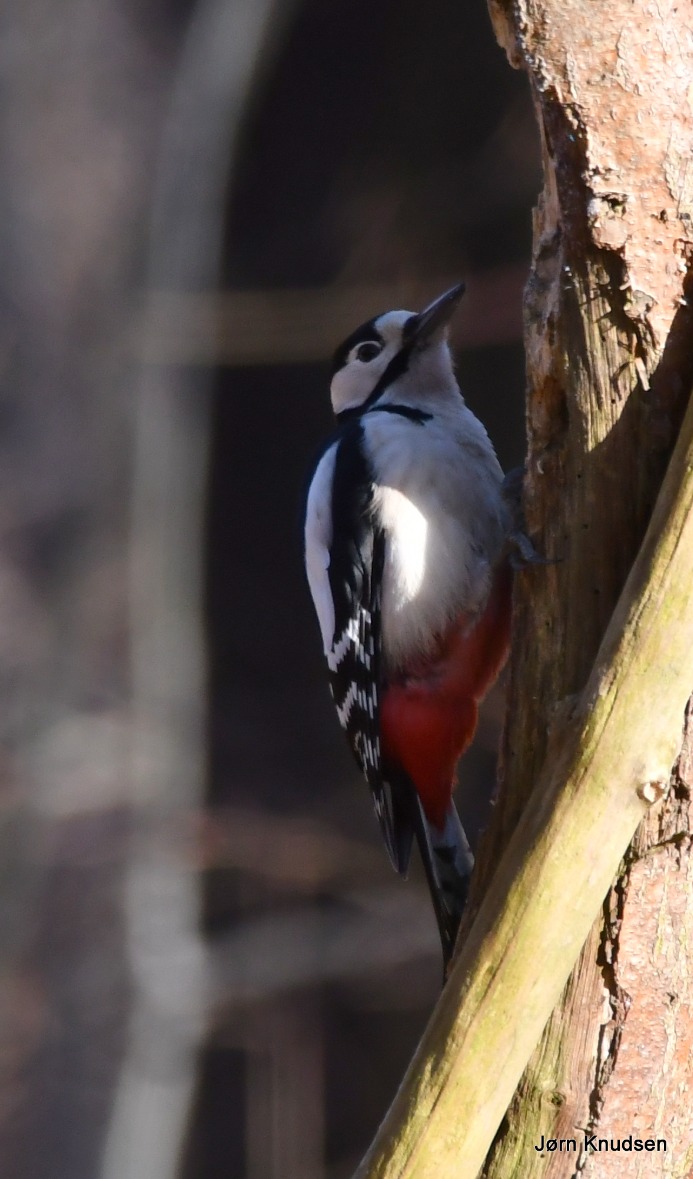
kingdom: Animalia
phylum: Chordata
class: Aves
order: Piciformes
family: Picidae
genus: Dendrocopos
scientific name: Dendrocopos major
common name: Stor flagspætte
